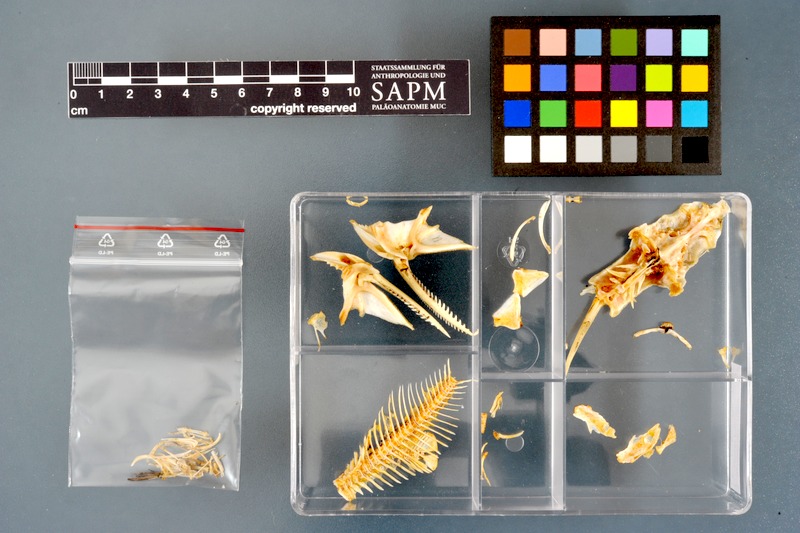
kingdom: Animalia
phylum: Chordata
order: Siluriformes
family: Mochokidae
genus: Synodontis
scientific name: Synodontis nigrita
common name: Catfish
